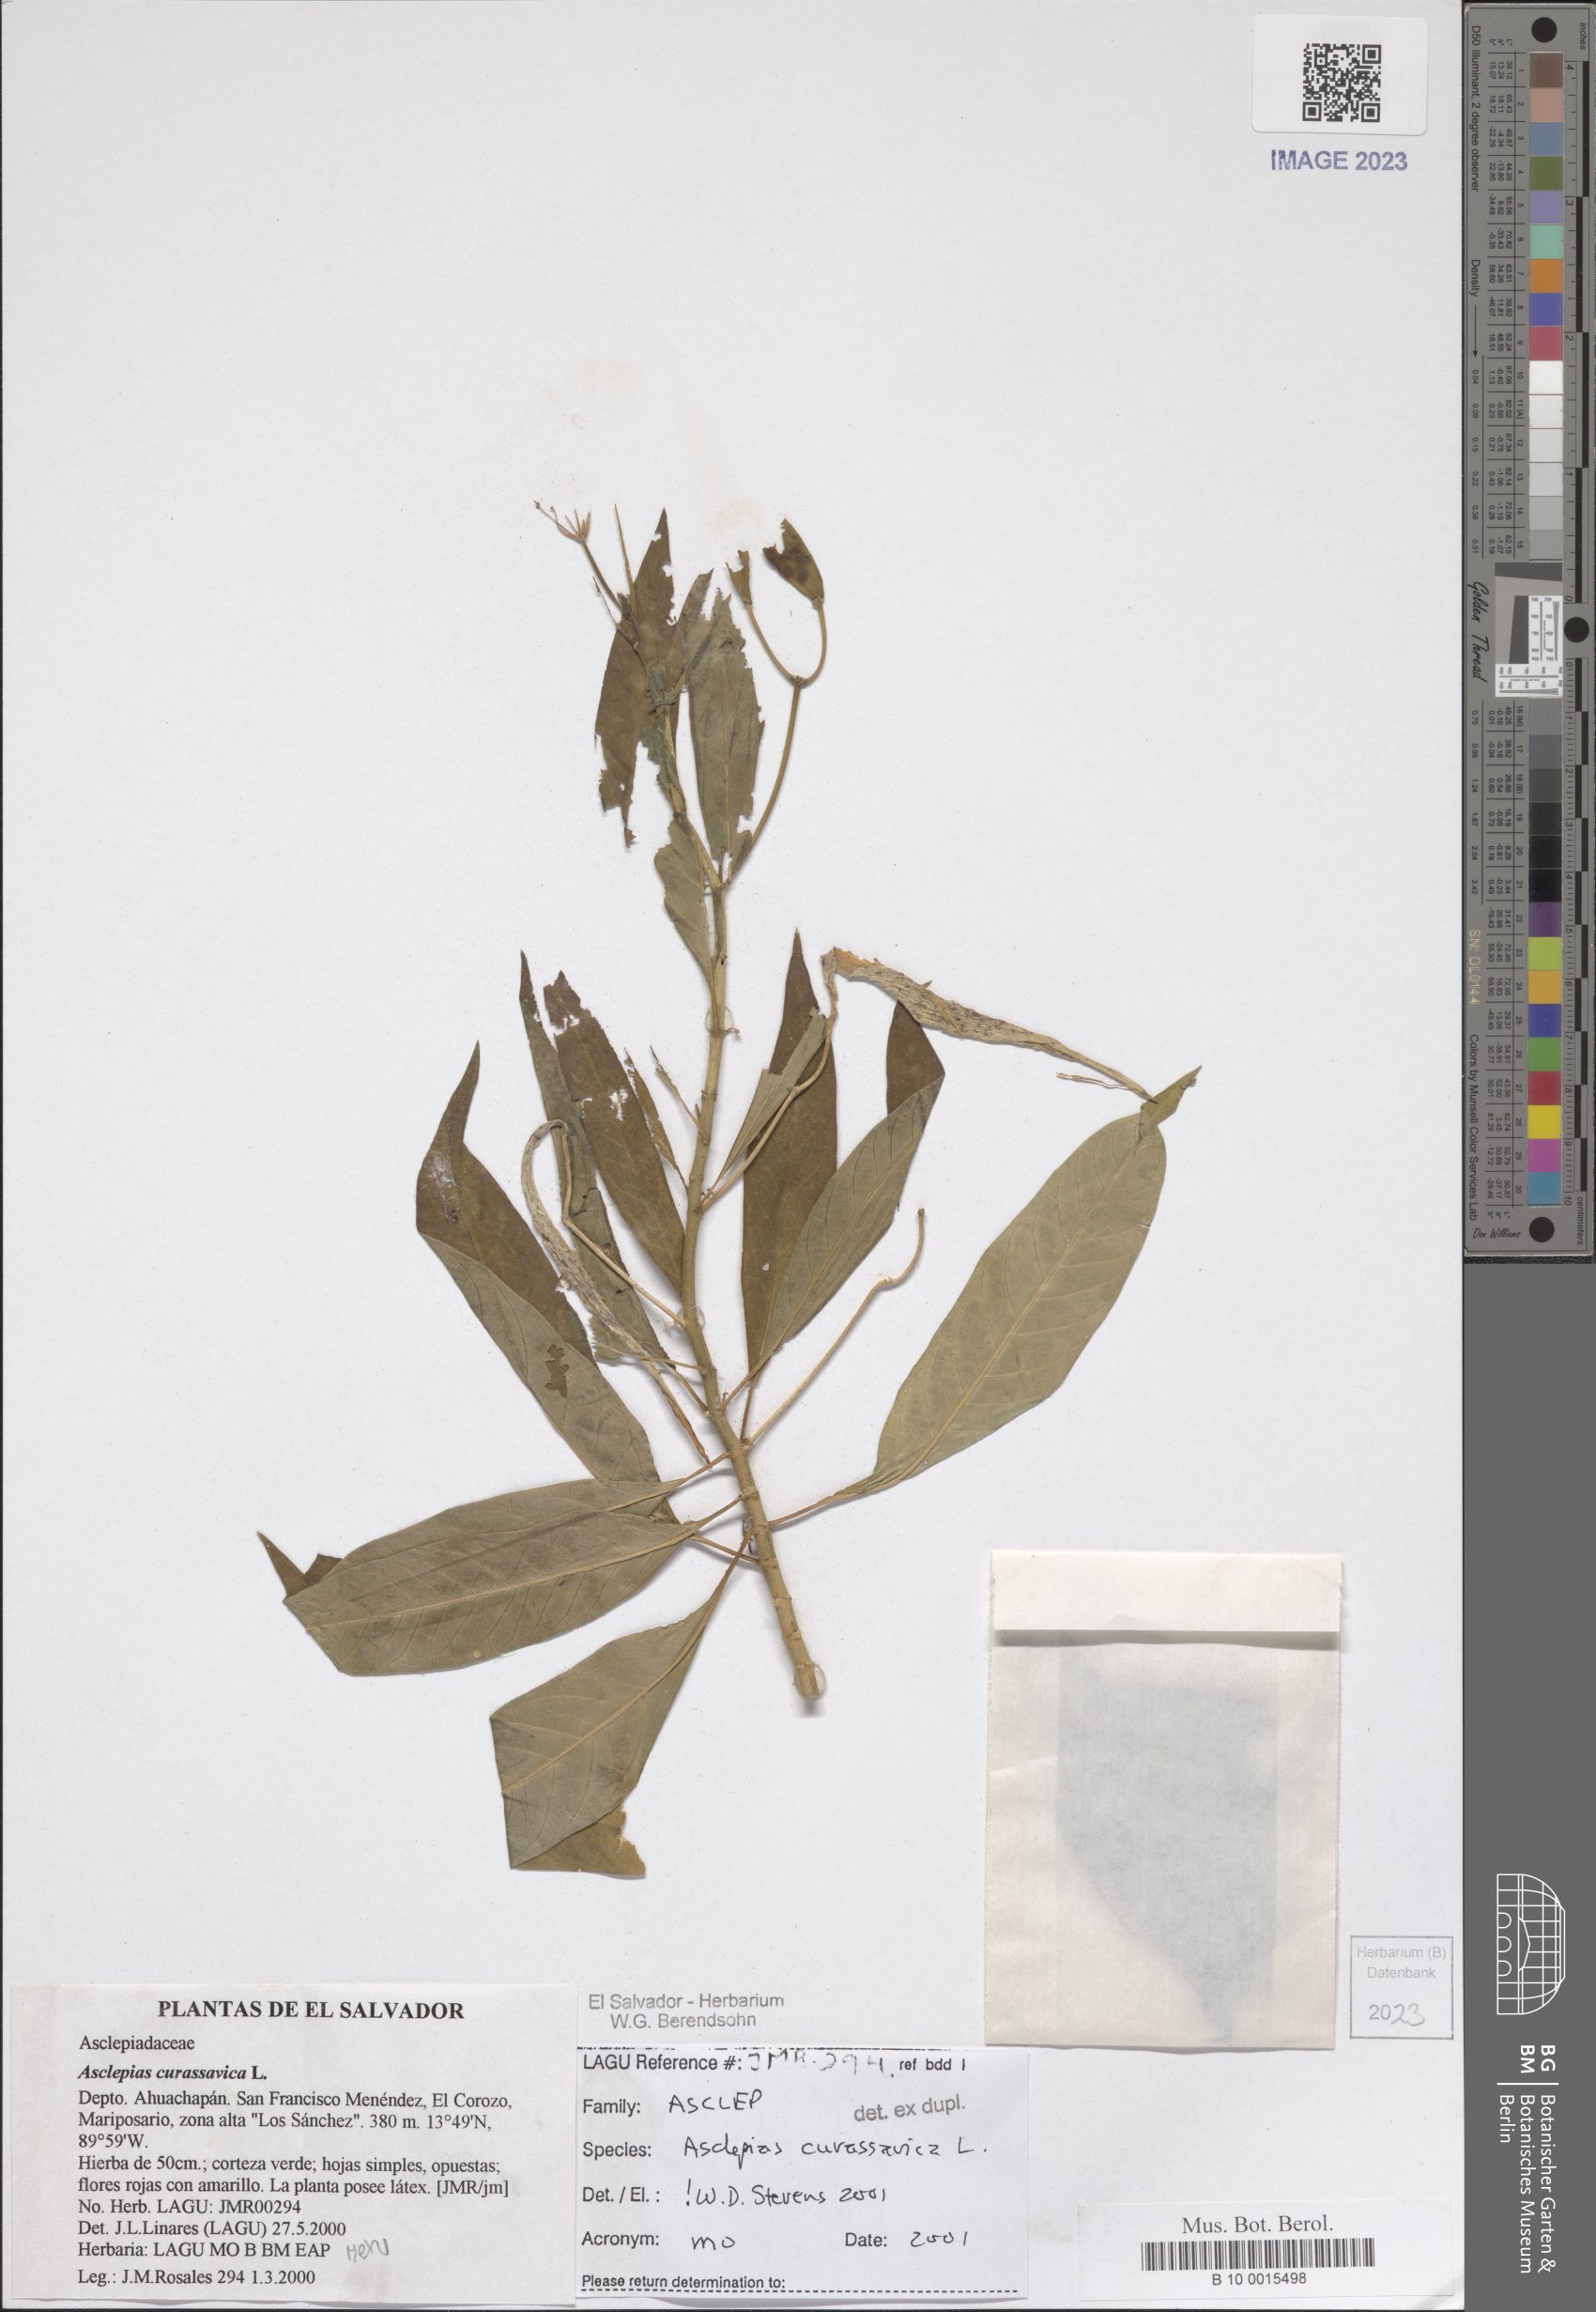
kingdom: Plantae
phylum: Tracheophyta
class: Magnoliopsida
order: Gentianales
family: Apocynaceae
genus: Asclepias
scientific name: Asclepias curassavica
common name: Bloodflower
